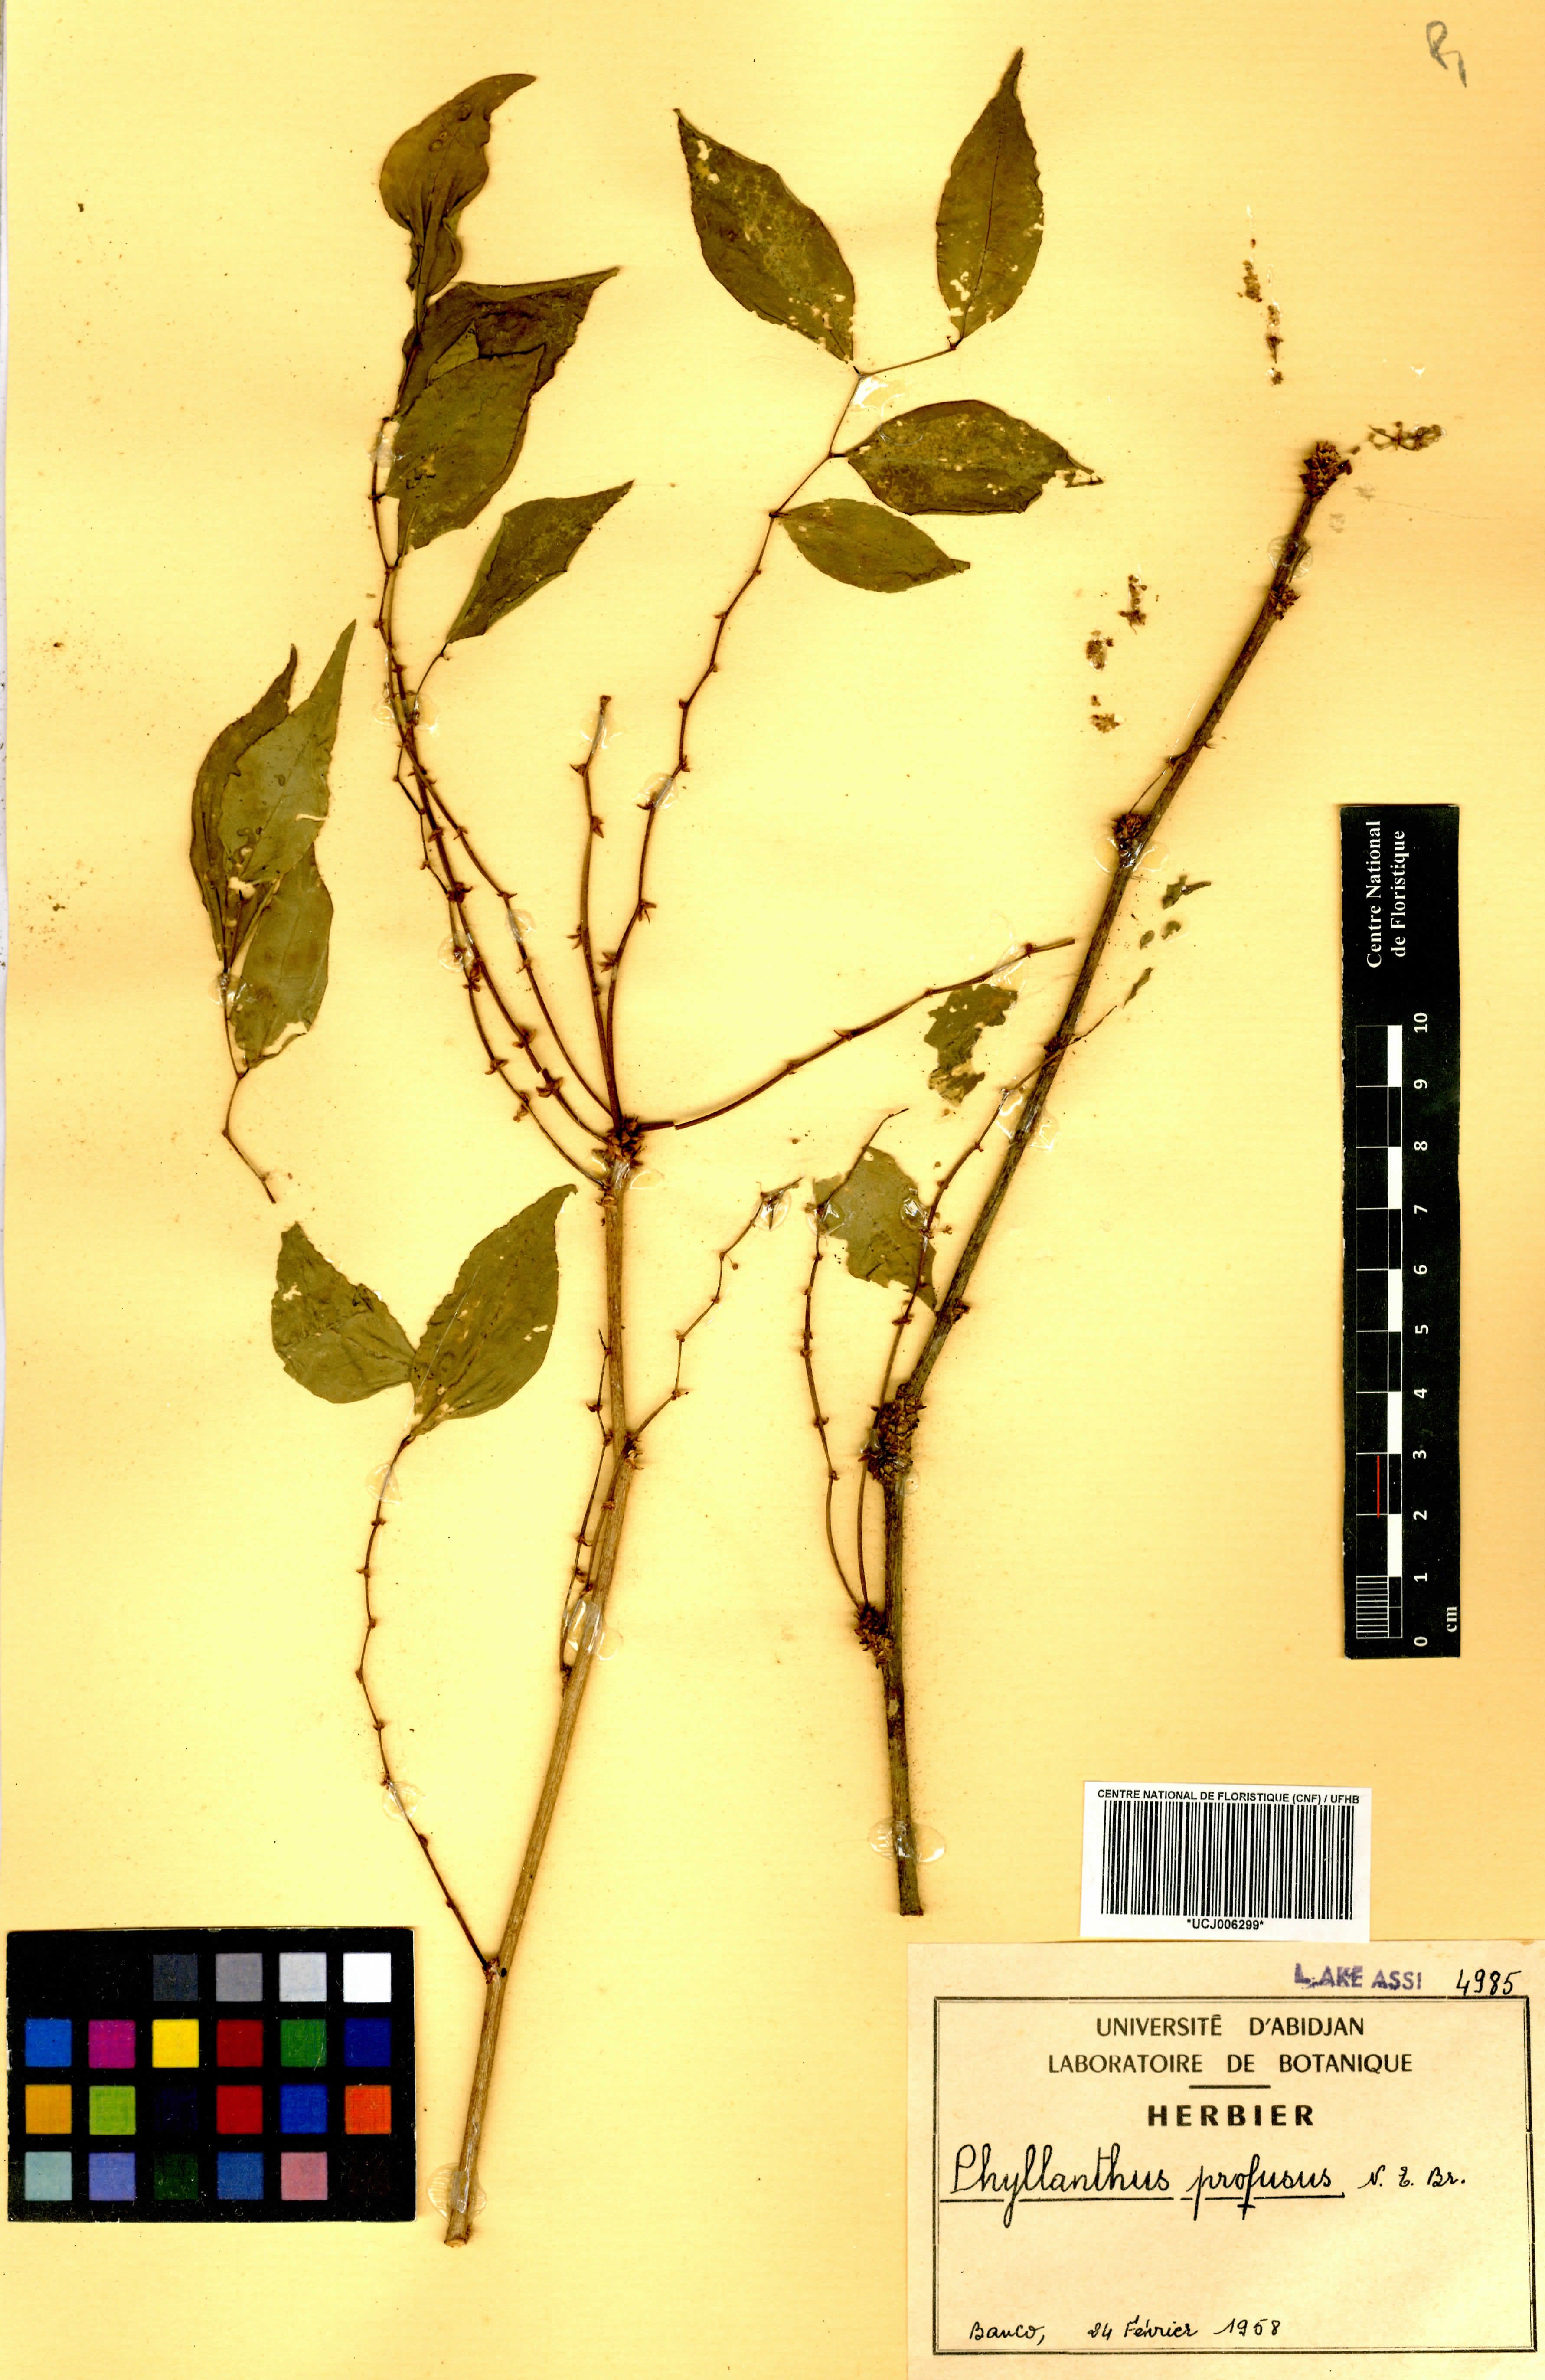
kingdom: Plantae
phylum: Tracheophyta
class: Magnoliopsida
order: Malpighiales
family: Phyllanthaceae
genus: Phyllanthus
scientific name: Phyllanthus profusus
